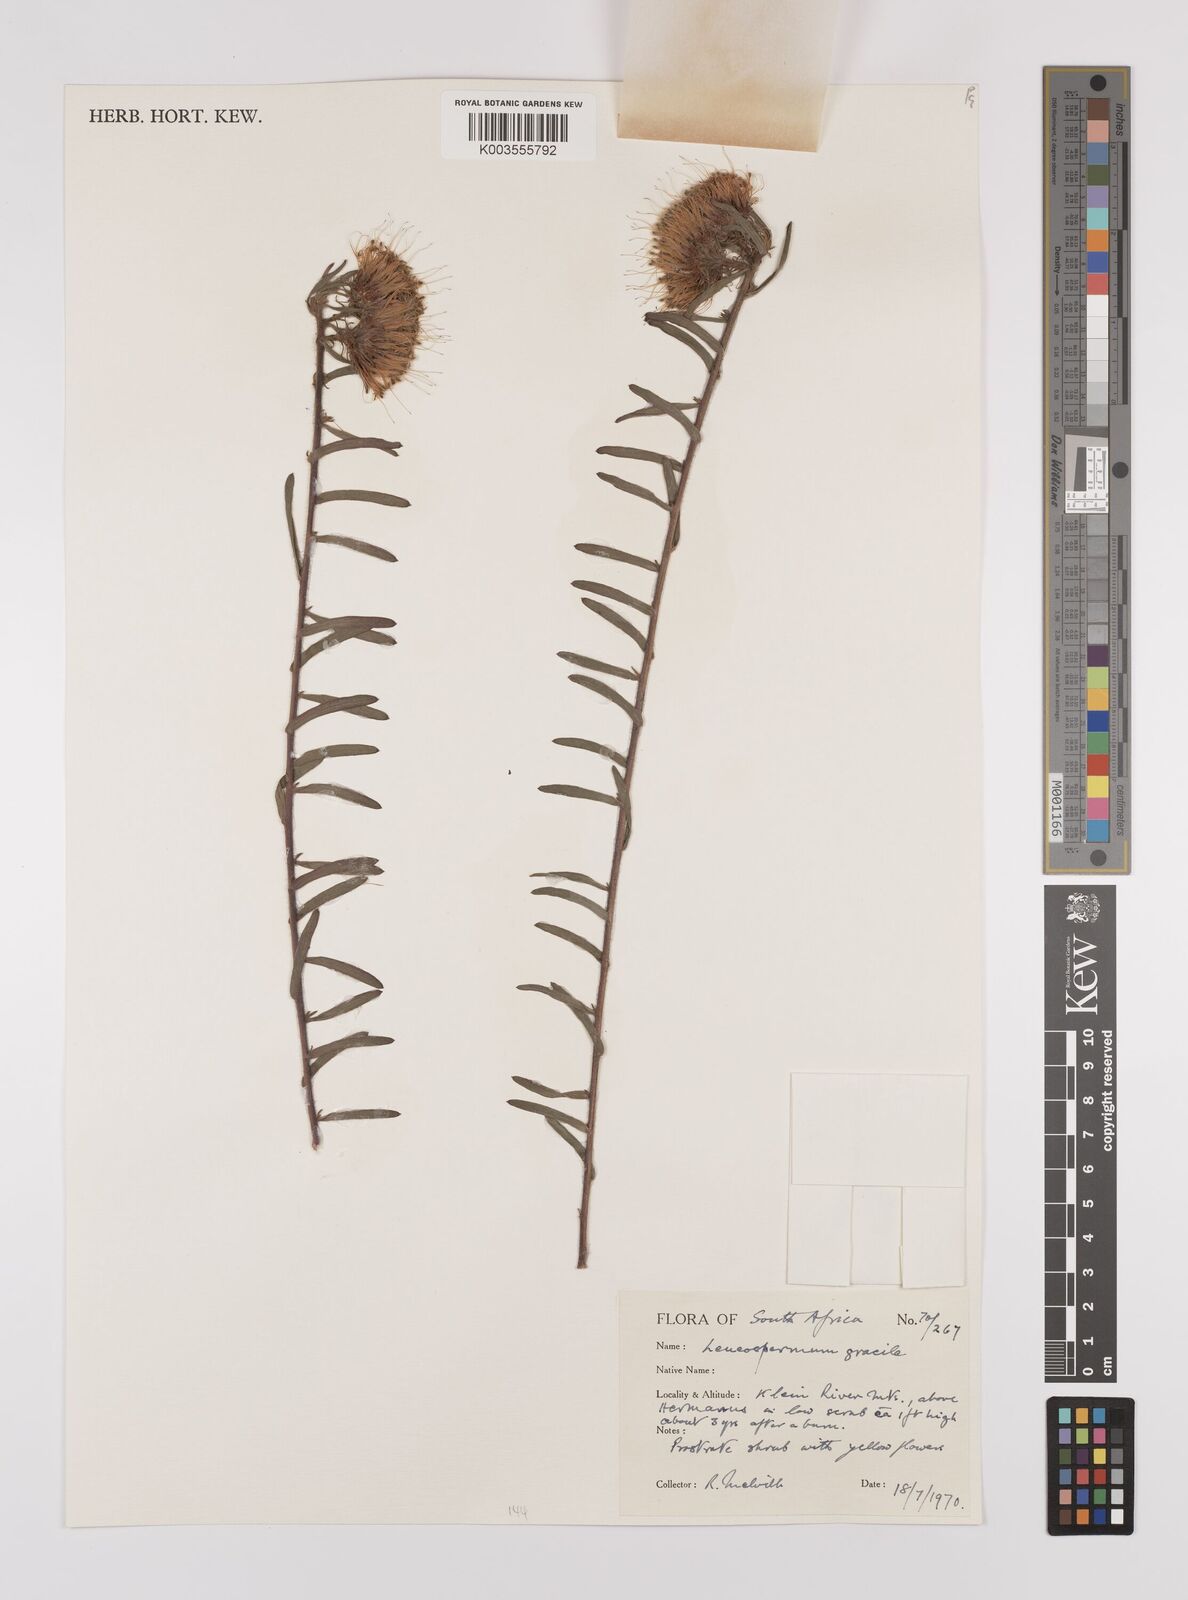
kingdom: Plantae
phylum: Tracheophyta
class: Magnoliopsida
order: Proteales
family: Proteaceae
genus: Leucospermum
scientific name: Leucospermum gracile
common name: Hermanus pincushion
